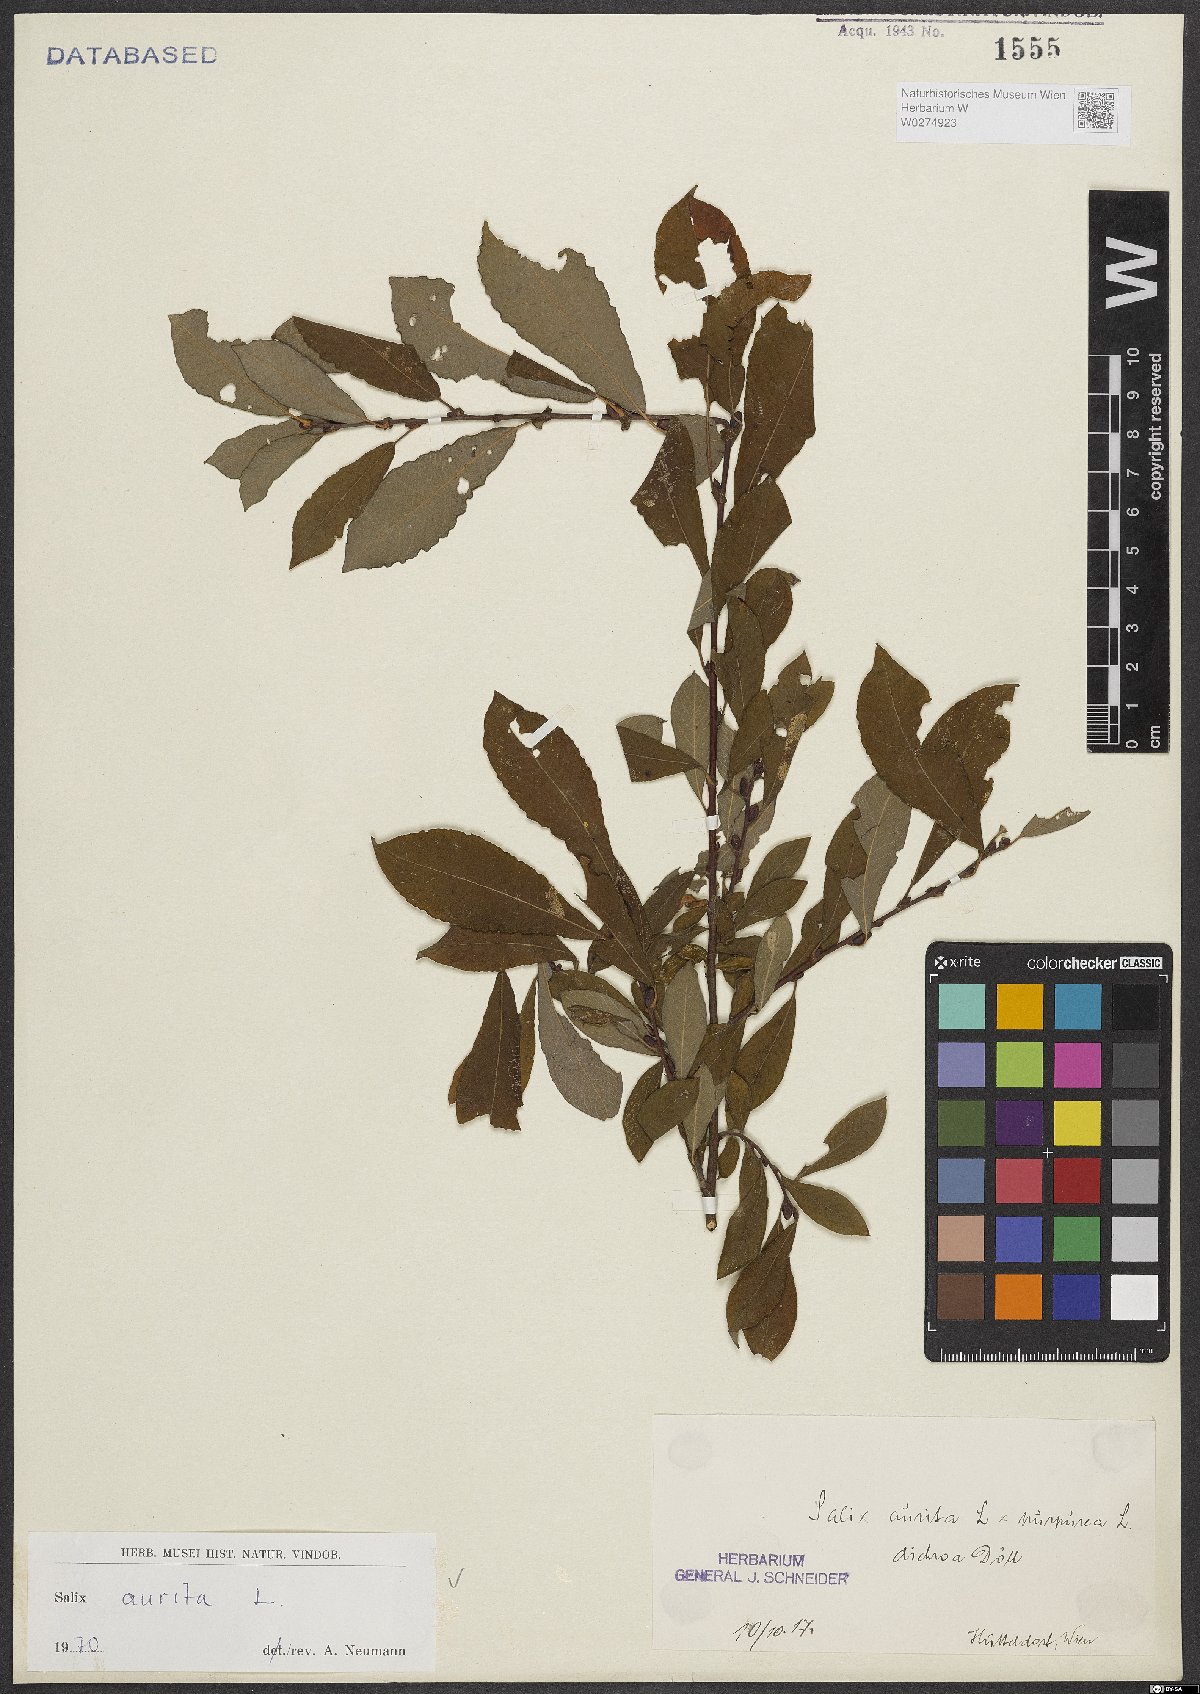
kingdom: Plantae
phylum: Tracheophyta
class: Magnoliopsida
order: Malpighiales
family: Salicaceae
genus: Salix
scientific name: Salix aurita
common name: Eared willow
